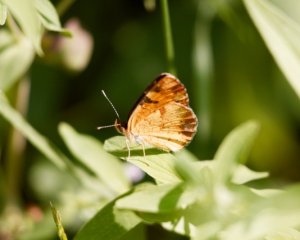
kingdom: Animalia
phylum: Arthropoda
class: Insecta
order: Lepidoptera
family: Nymphalidae
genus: Phyciodes
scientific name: Phyciodes tharos
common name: Northern Crescent
